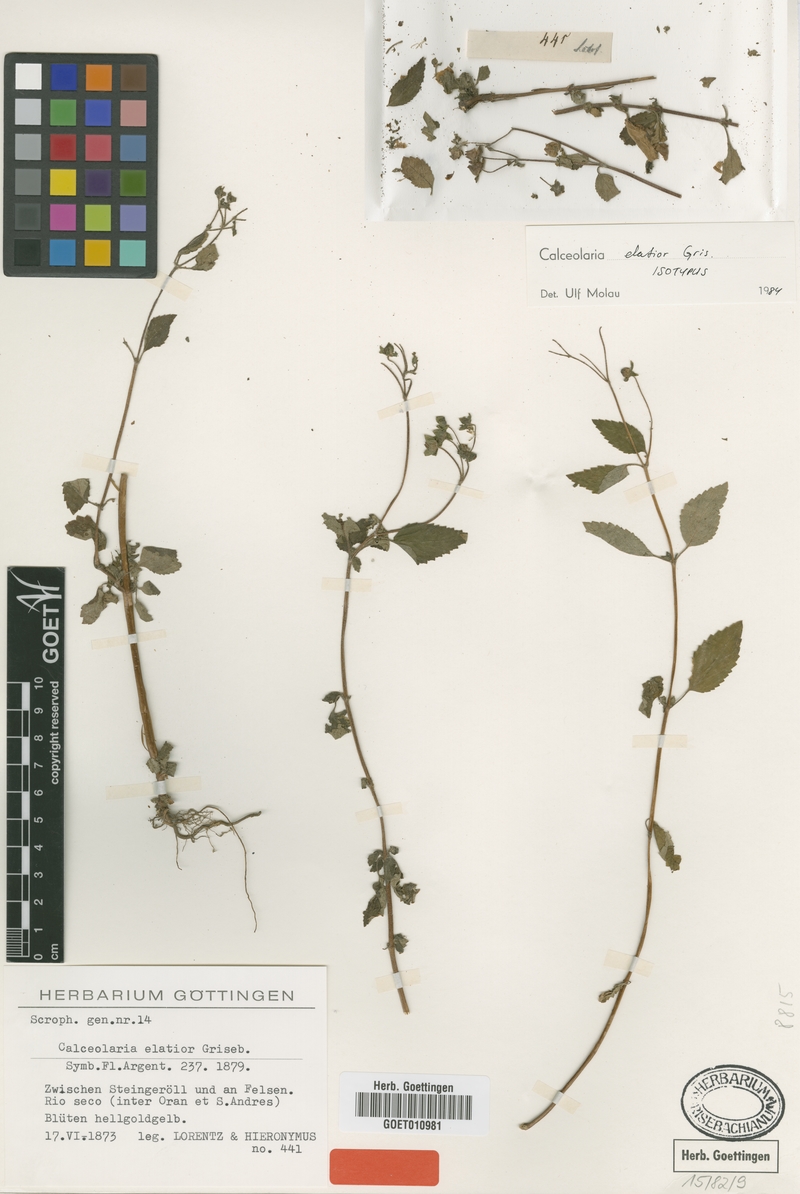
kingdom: Plantae
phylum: Tracheophyta
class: Magnoliopsida
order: Lamiales
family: Calceolariaceae
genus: Calceolaria
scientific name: Calceolaria elatior
